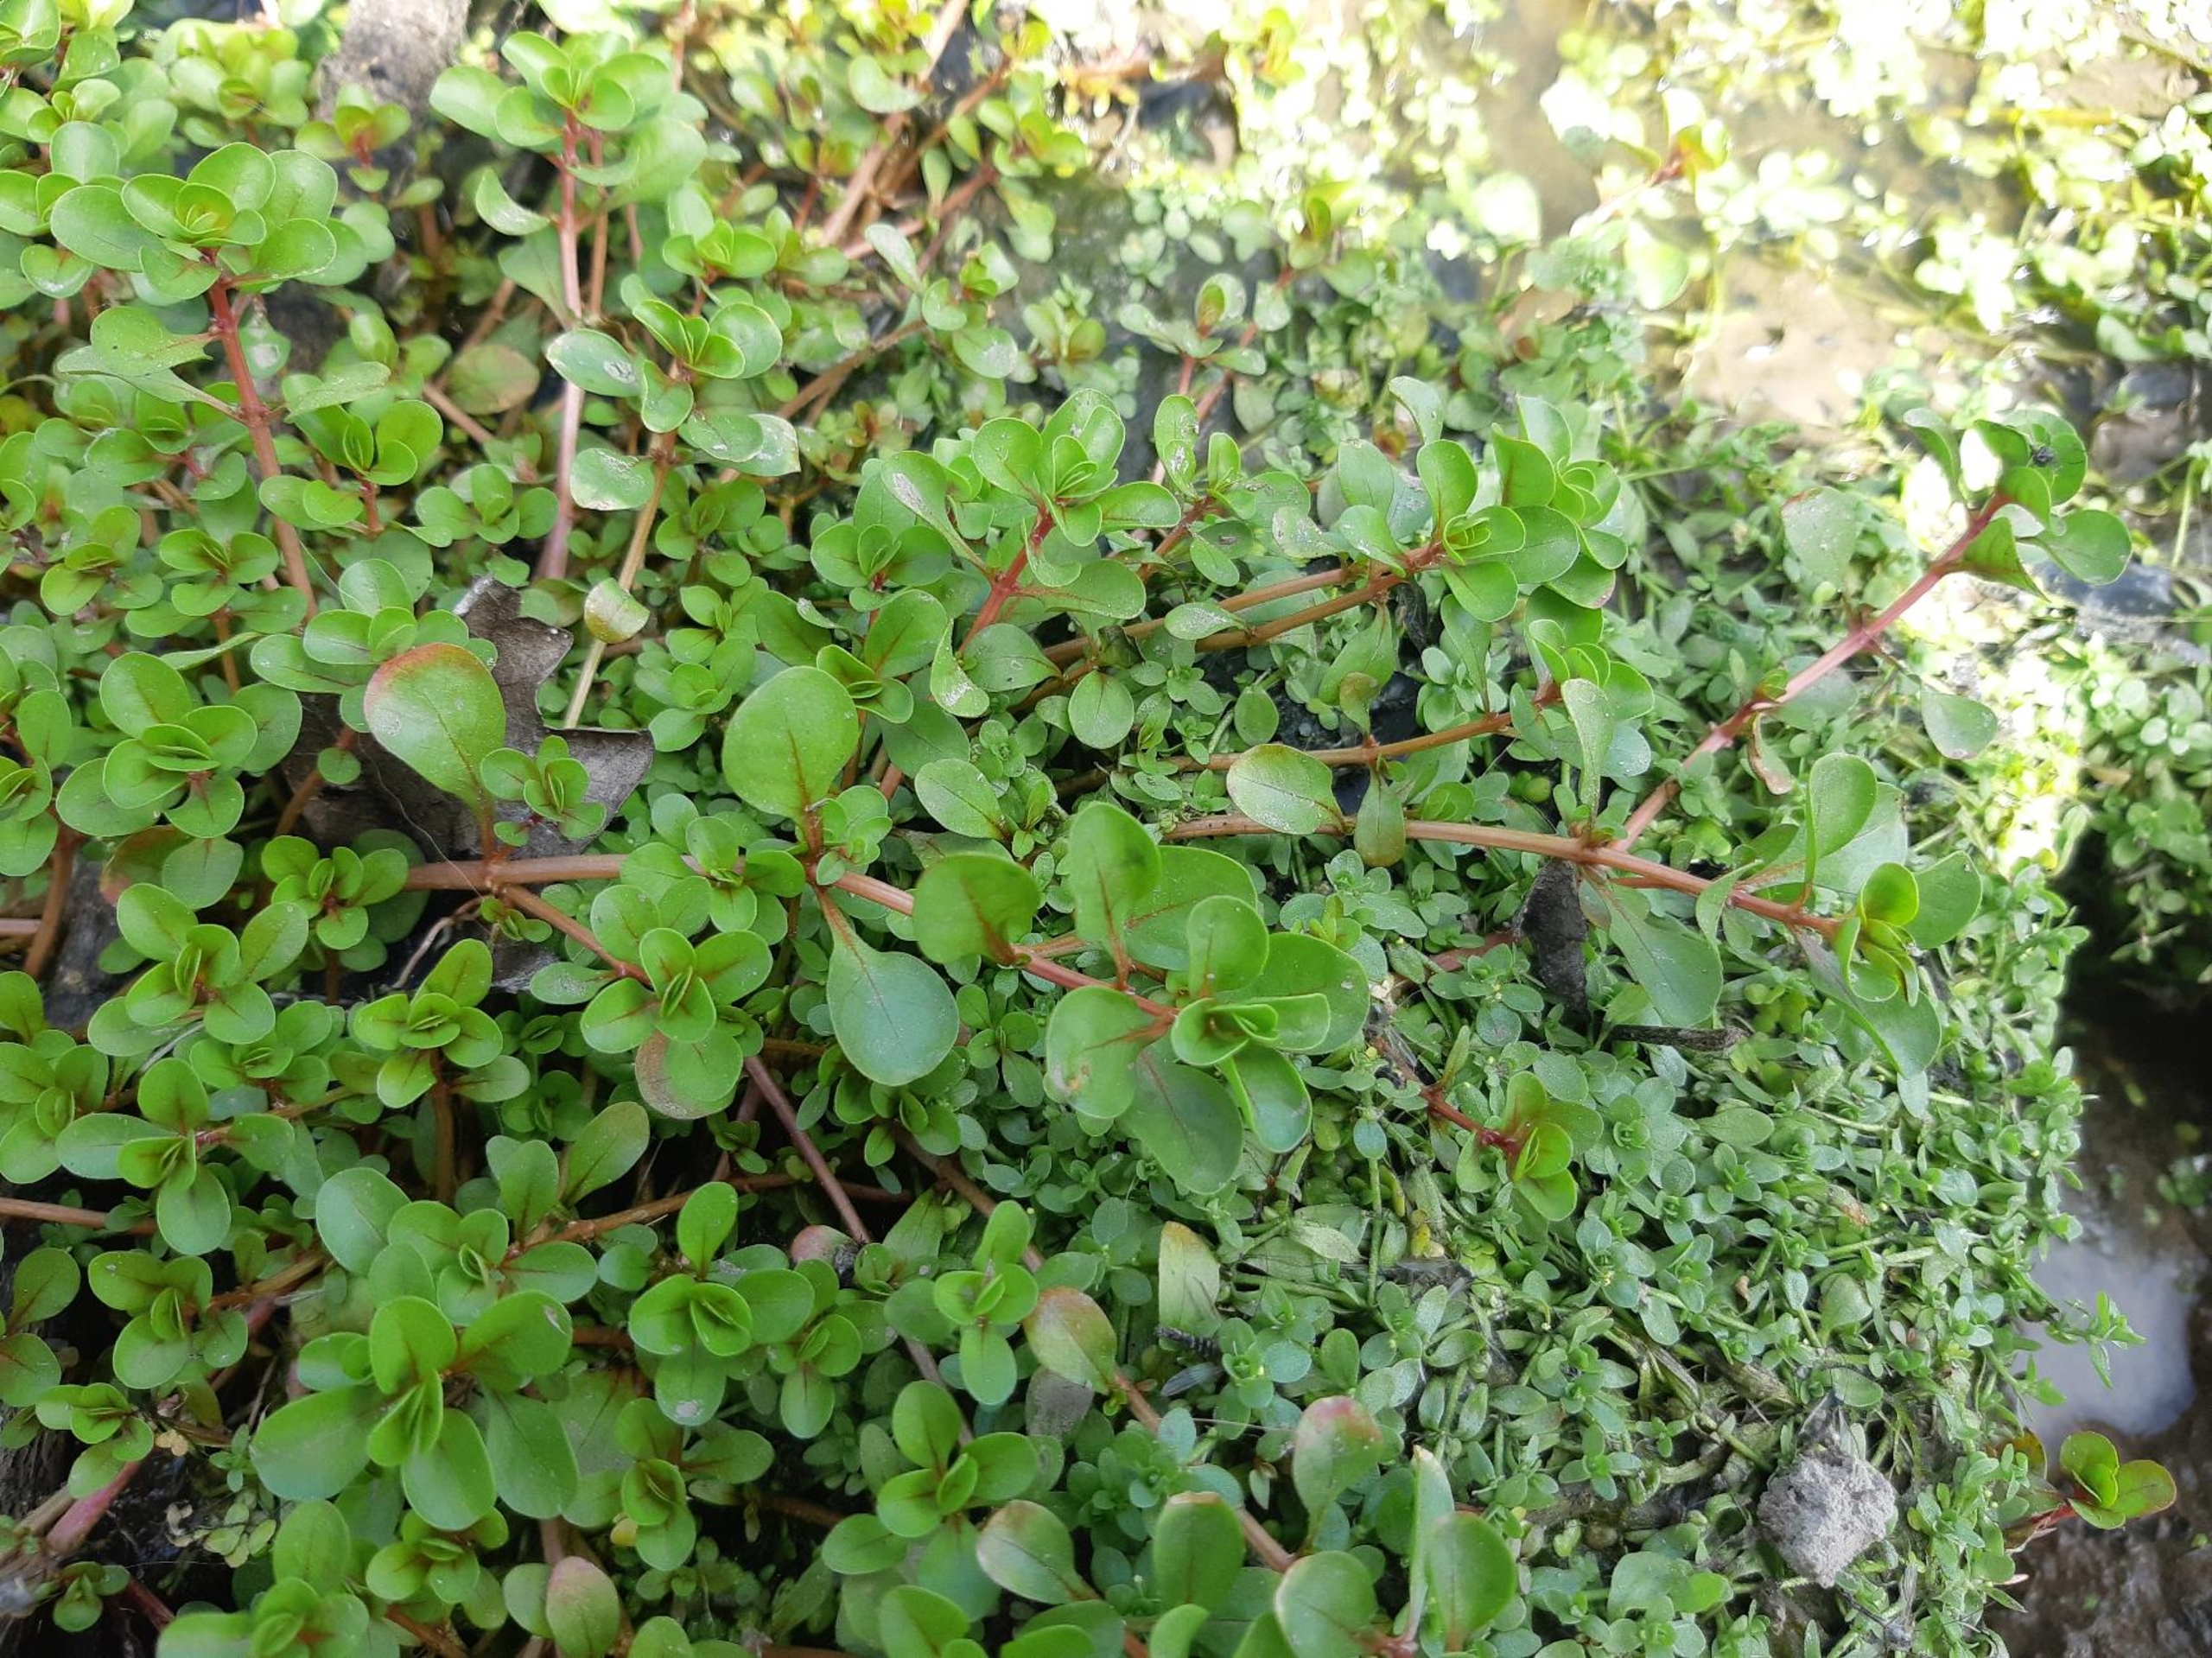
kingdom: Plantae
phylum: Tracheophyta
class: Magnoliopsida
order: Myrtales
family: Lythraceae
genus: Lythrum
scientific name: Lythrum portula
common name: Vandportulak
